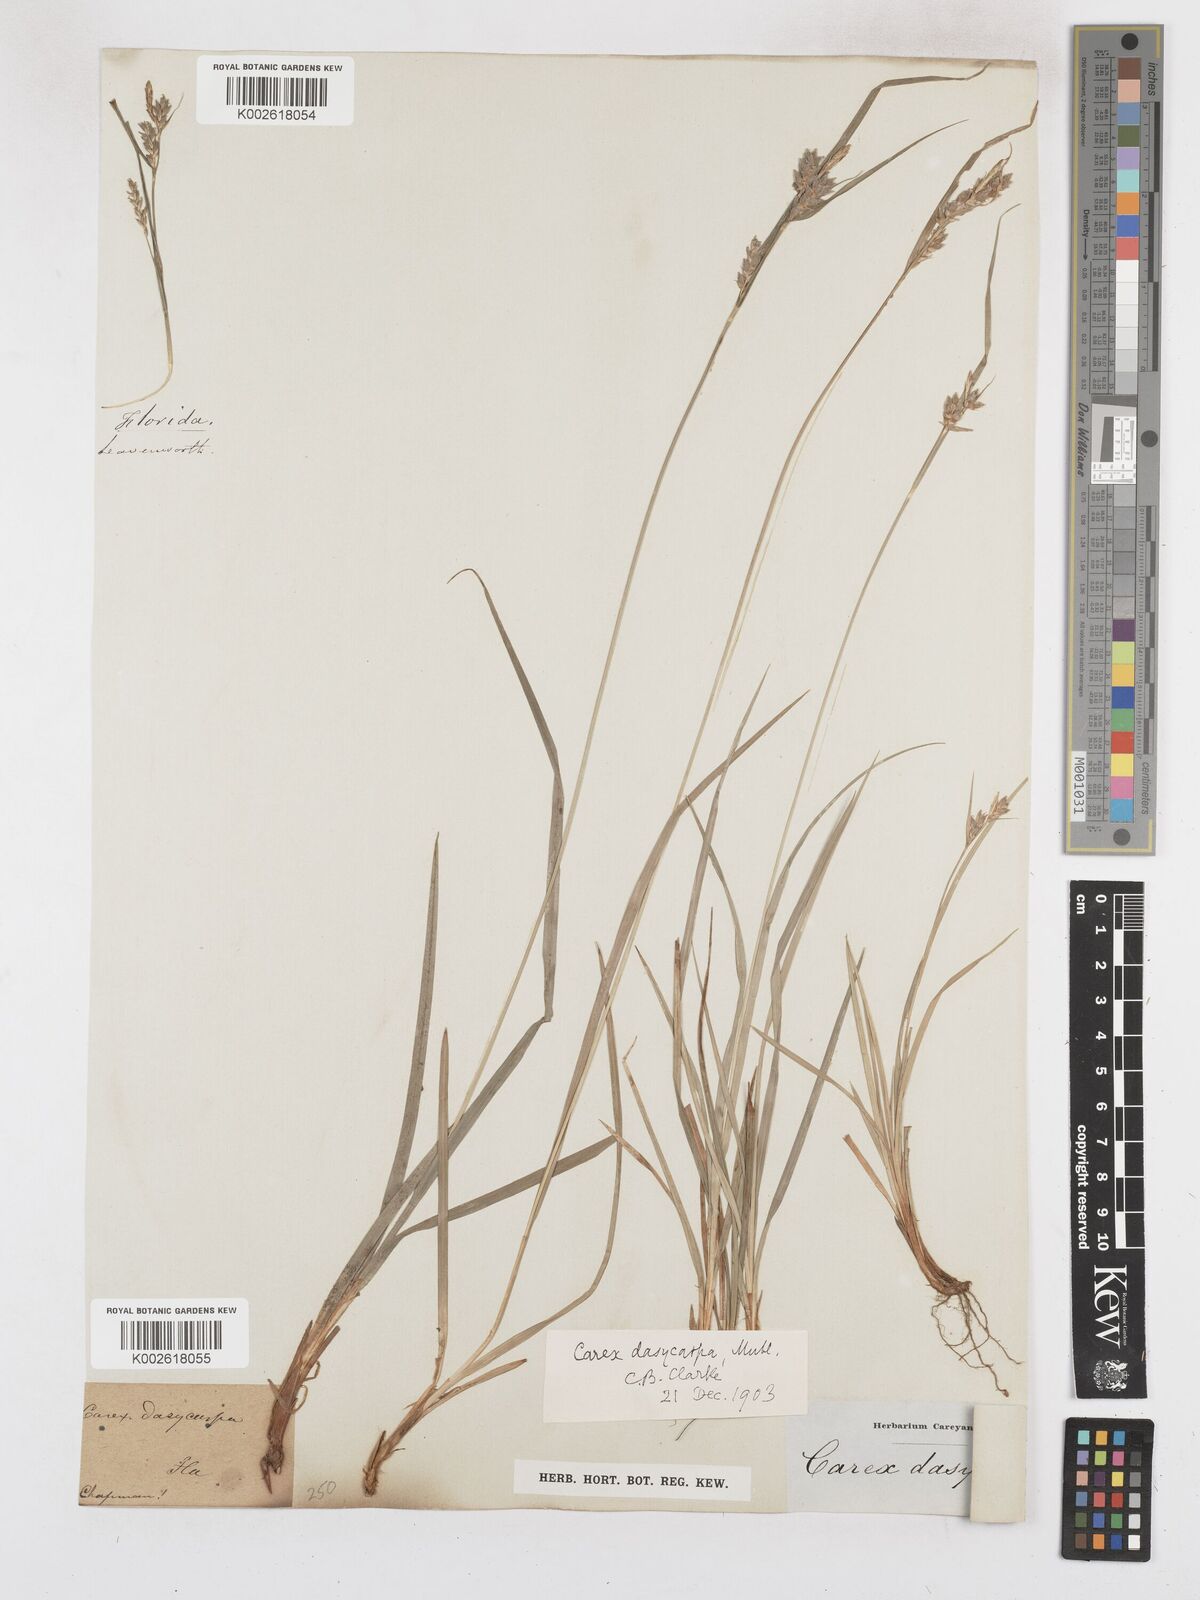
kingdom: Plantae
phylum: Tracheophyta
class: Liliopsida
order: Poales
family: Cyperaceae
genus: Carex
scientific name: Carex dasycarpa
